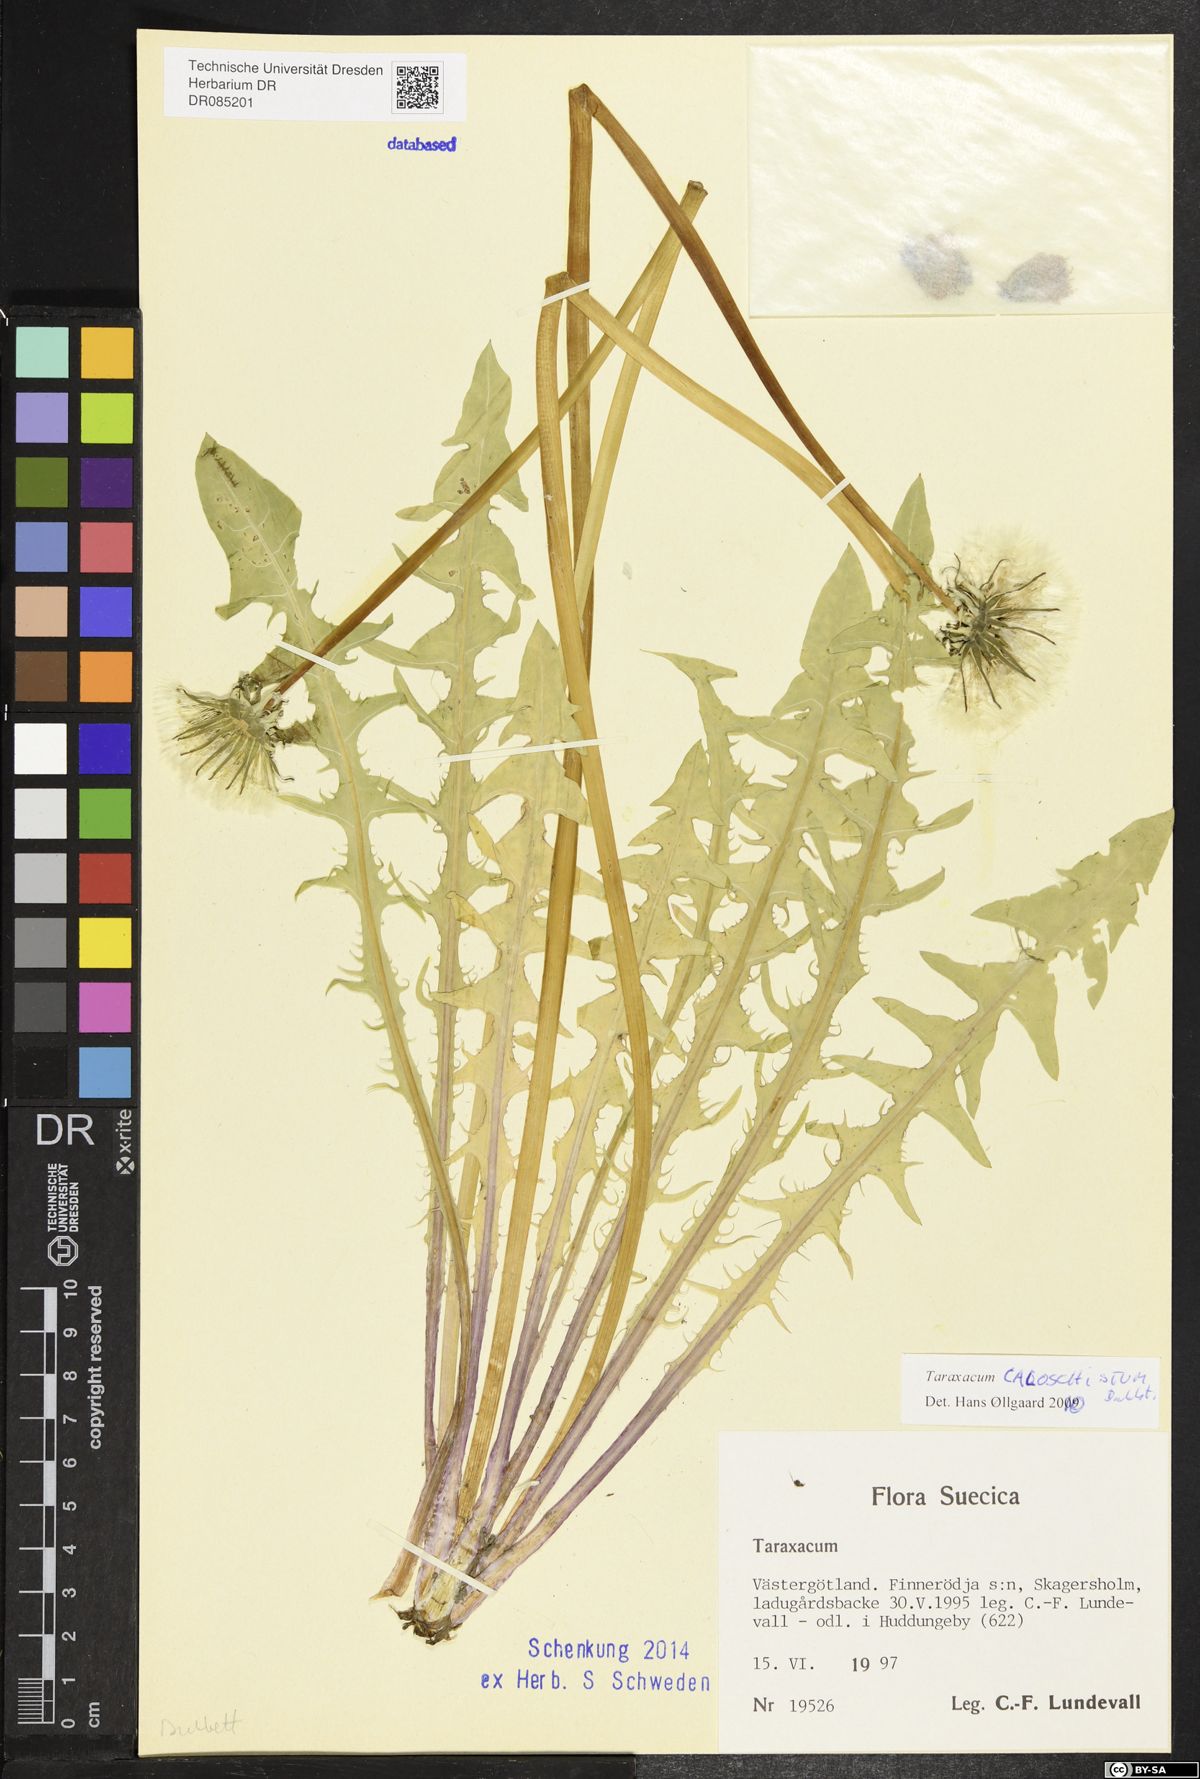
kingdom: Plantae
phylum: Tracheophyta
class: Magnoliopsida
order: Asterales
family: Asteraceae
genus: Taraxacum
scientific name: Taraxacum caloschistum
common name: Brilliant-stalked dandelion
